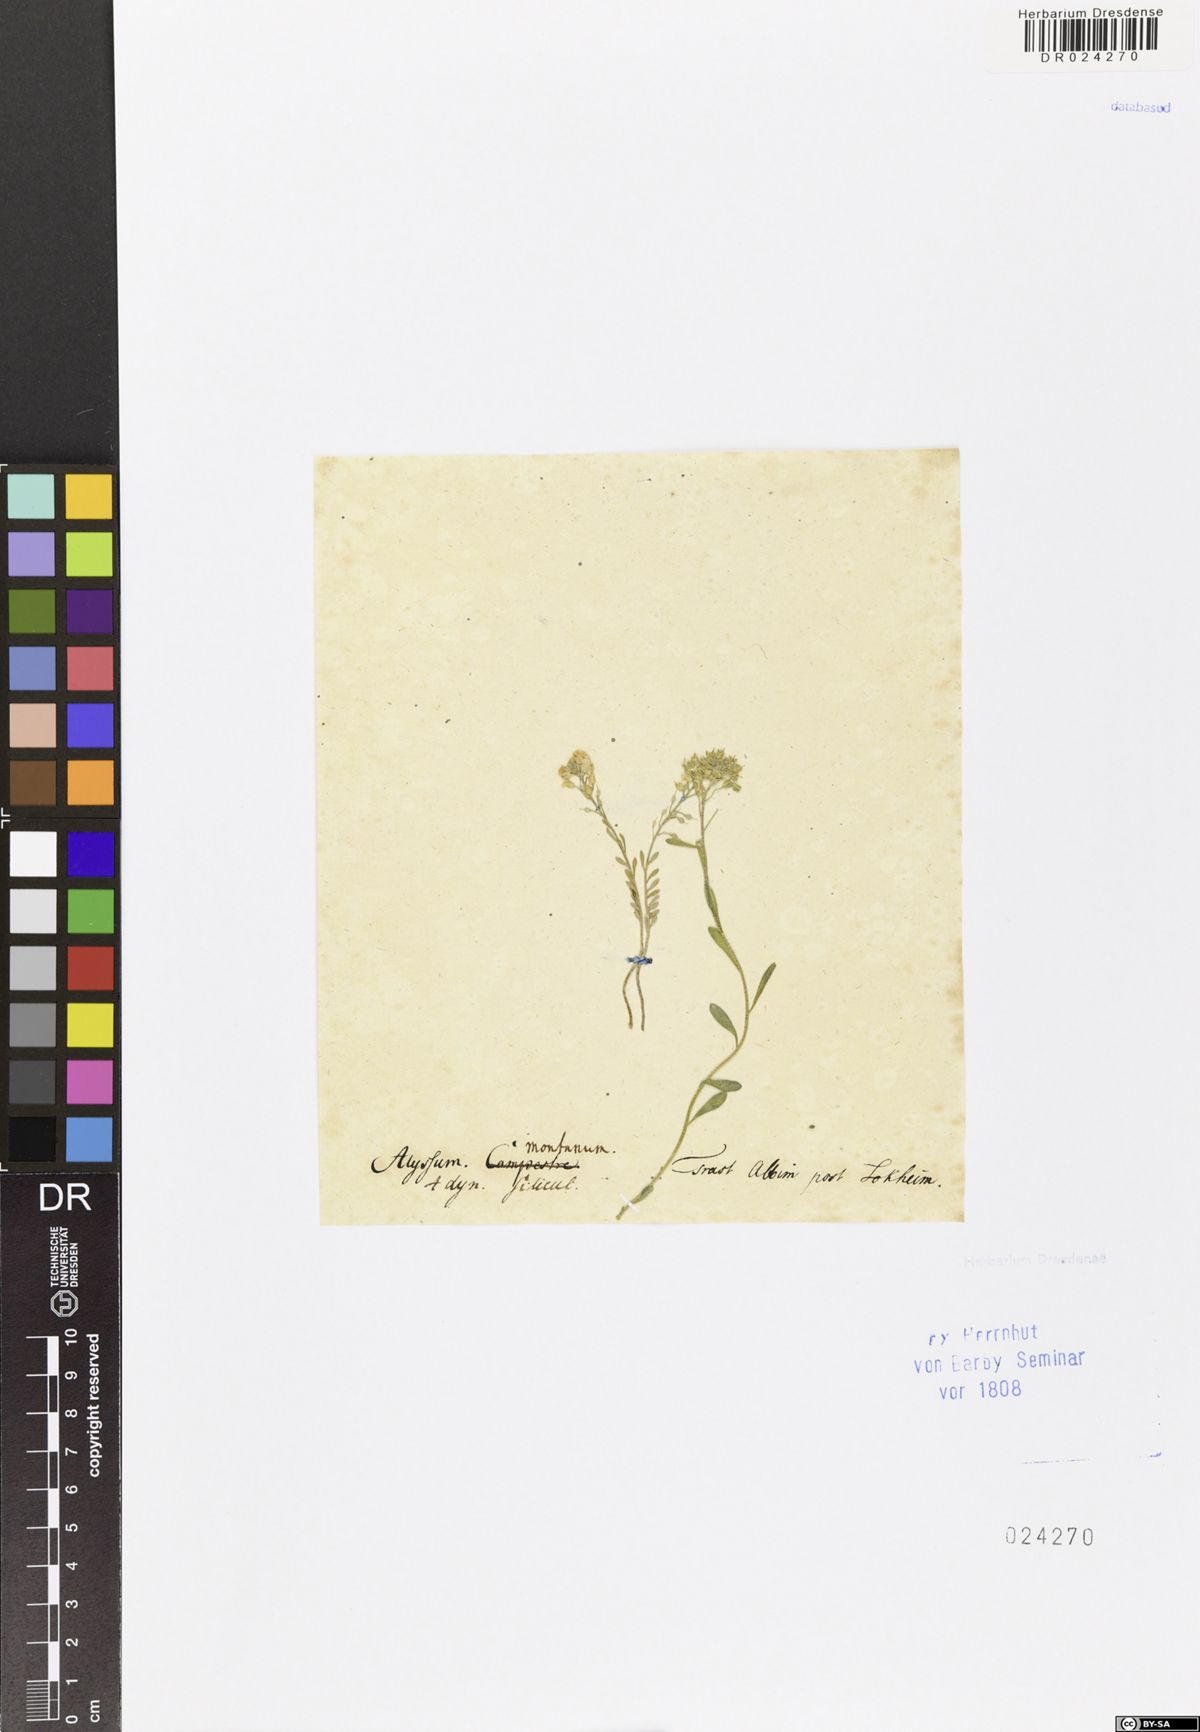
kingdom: Plantae
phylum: Tracheophyta
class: Magnoliopsida
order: Brassicales
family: Brassicaceae
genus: Alyssum
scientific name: Alyssum montanum
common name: Mountain alison
